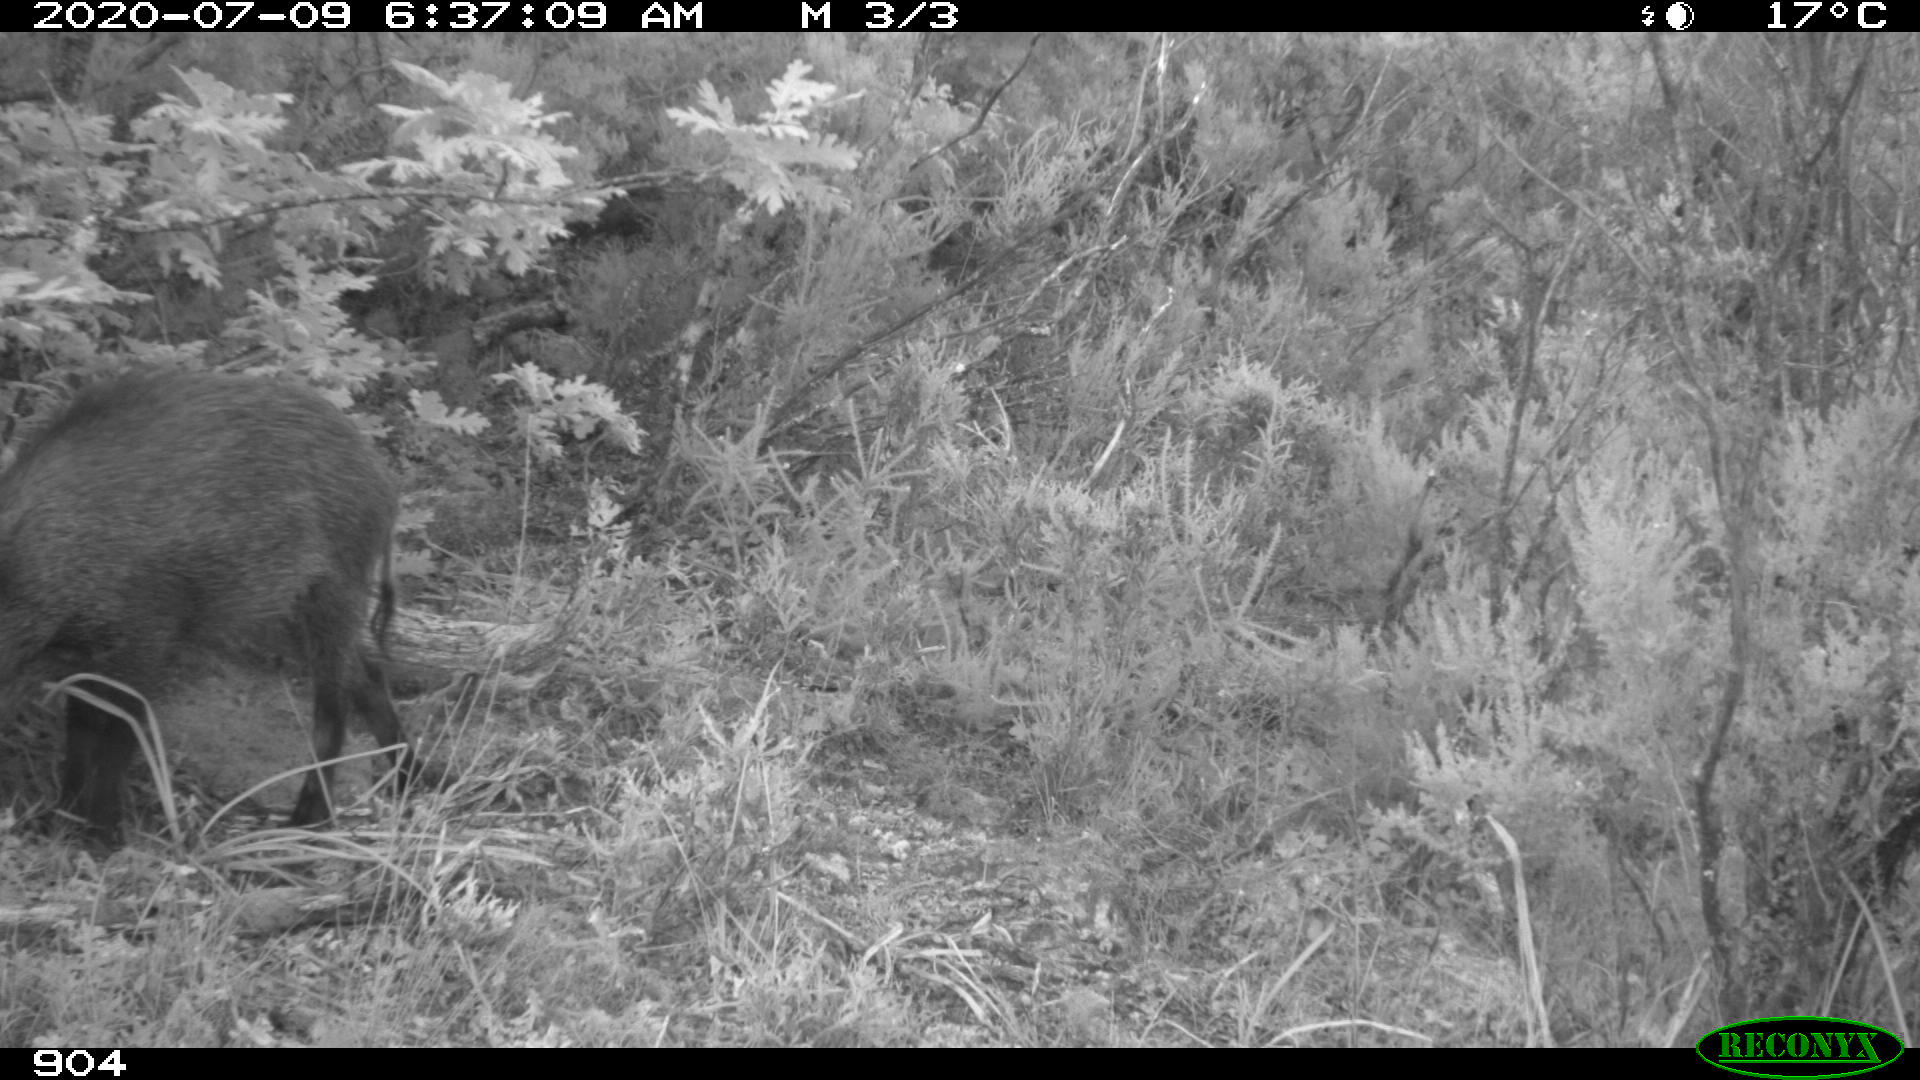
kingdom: Animalia
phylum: Chordata
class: Mammalia
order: Artiodactyla
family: Suidae
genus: Sus
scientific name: Sus scrofa
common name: Wild boar
